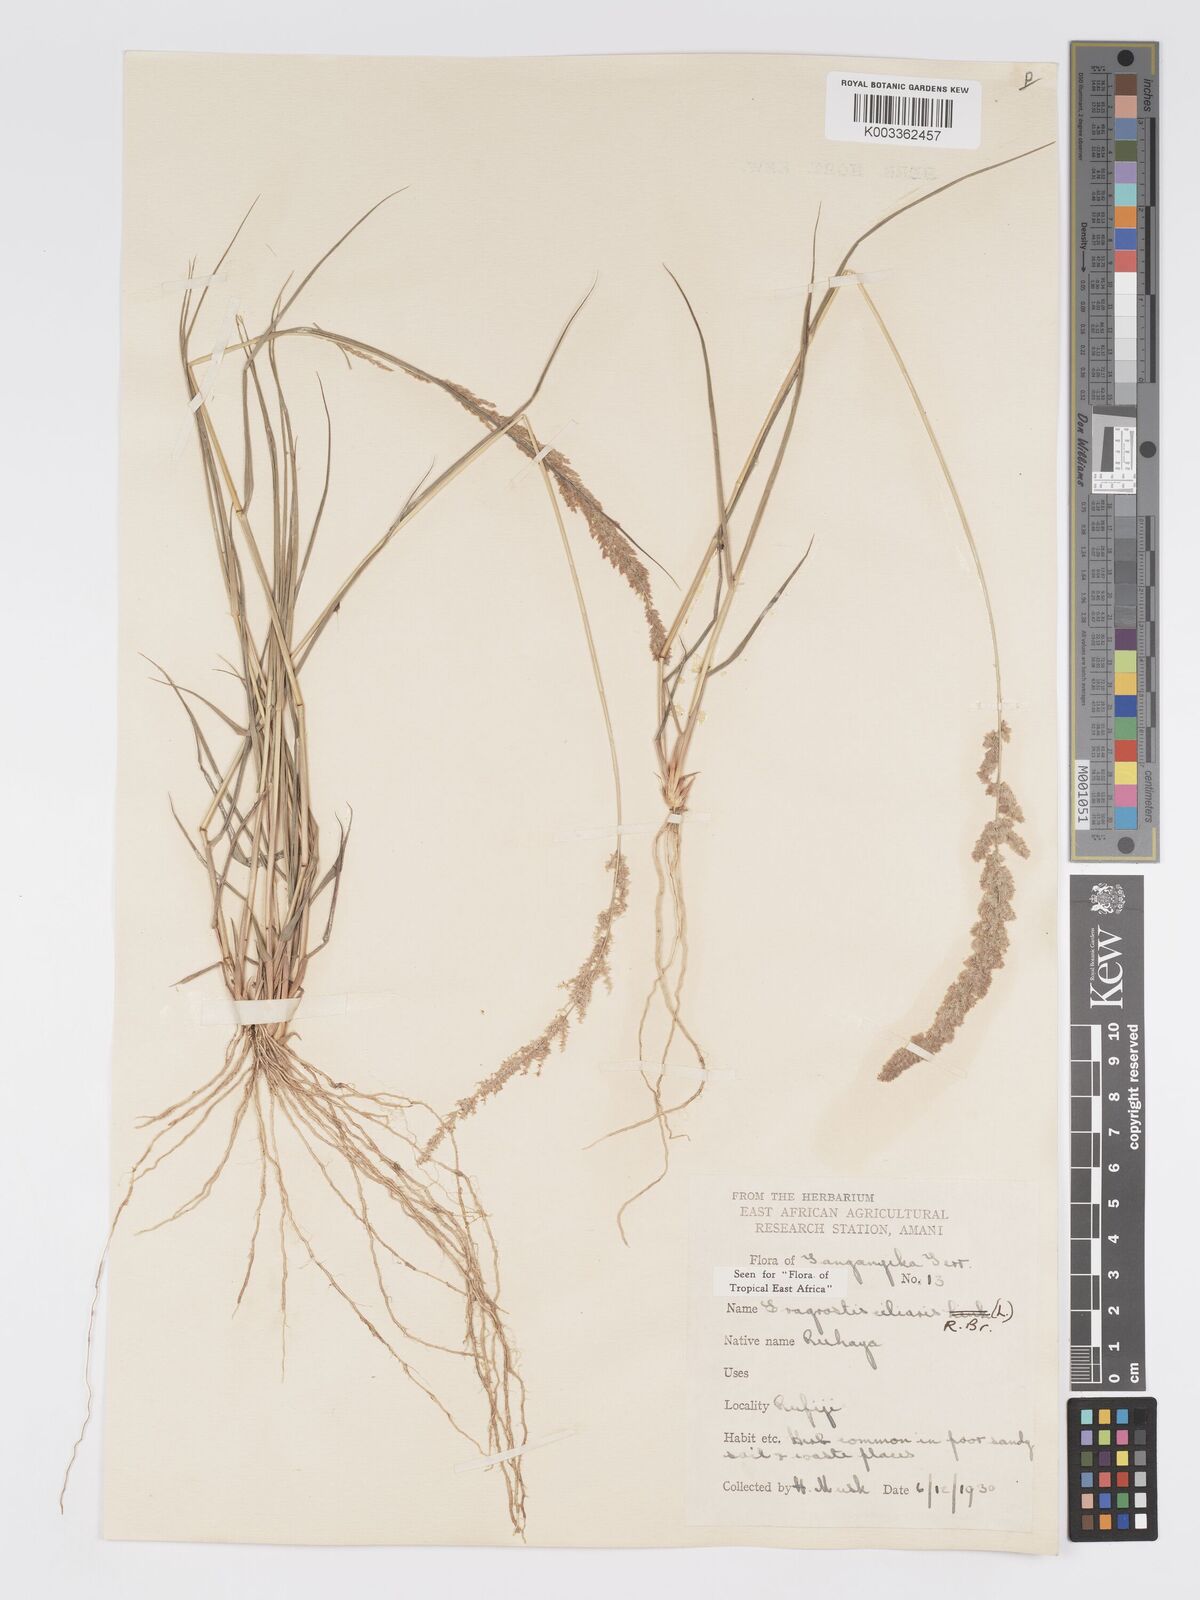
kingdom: Plantae
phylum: Tracheophyta
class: Liliopsida
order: Poales
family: Poaceae
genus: Eragrostis
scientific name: Eragrostis ciliaris
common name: Gophertail lovegrass
